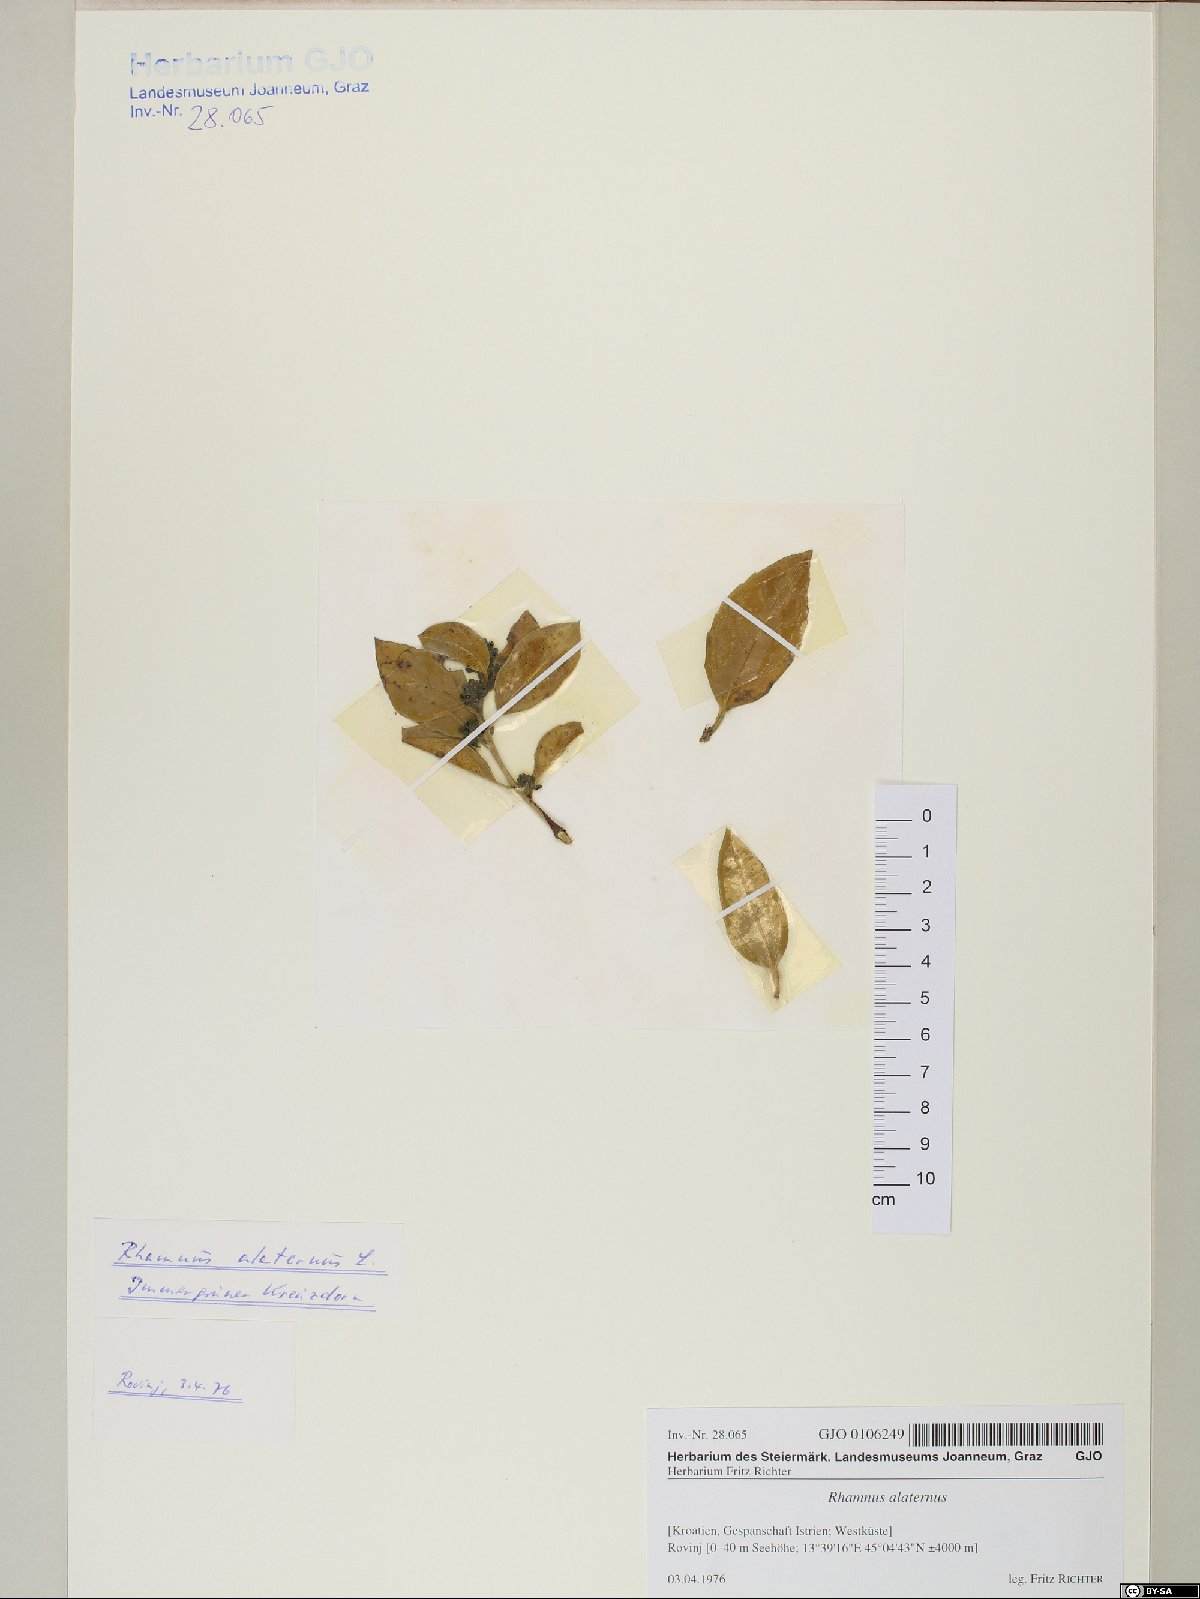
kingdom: Plantae
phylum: Tracheophyta
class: Magnoliopsida
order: Rosales
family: Rhamnaceae
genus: Rhamnus
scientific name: Rhamnus alaternus
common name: Mediterranean buckthorn
